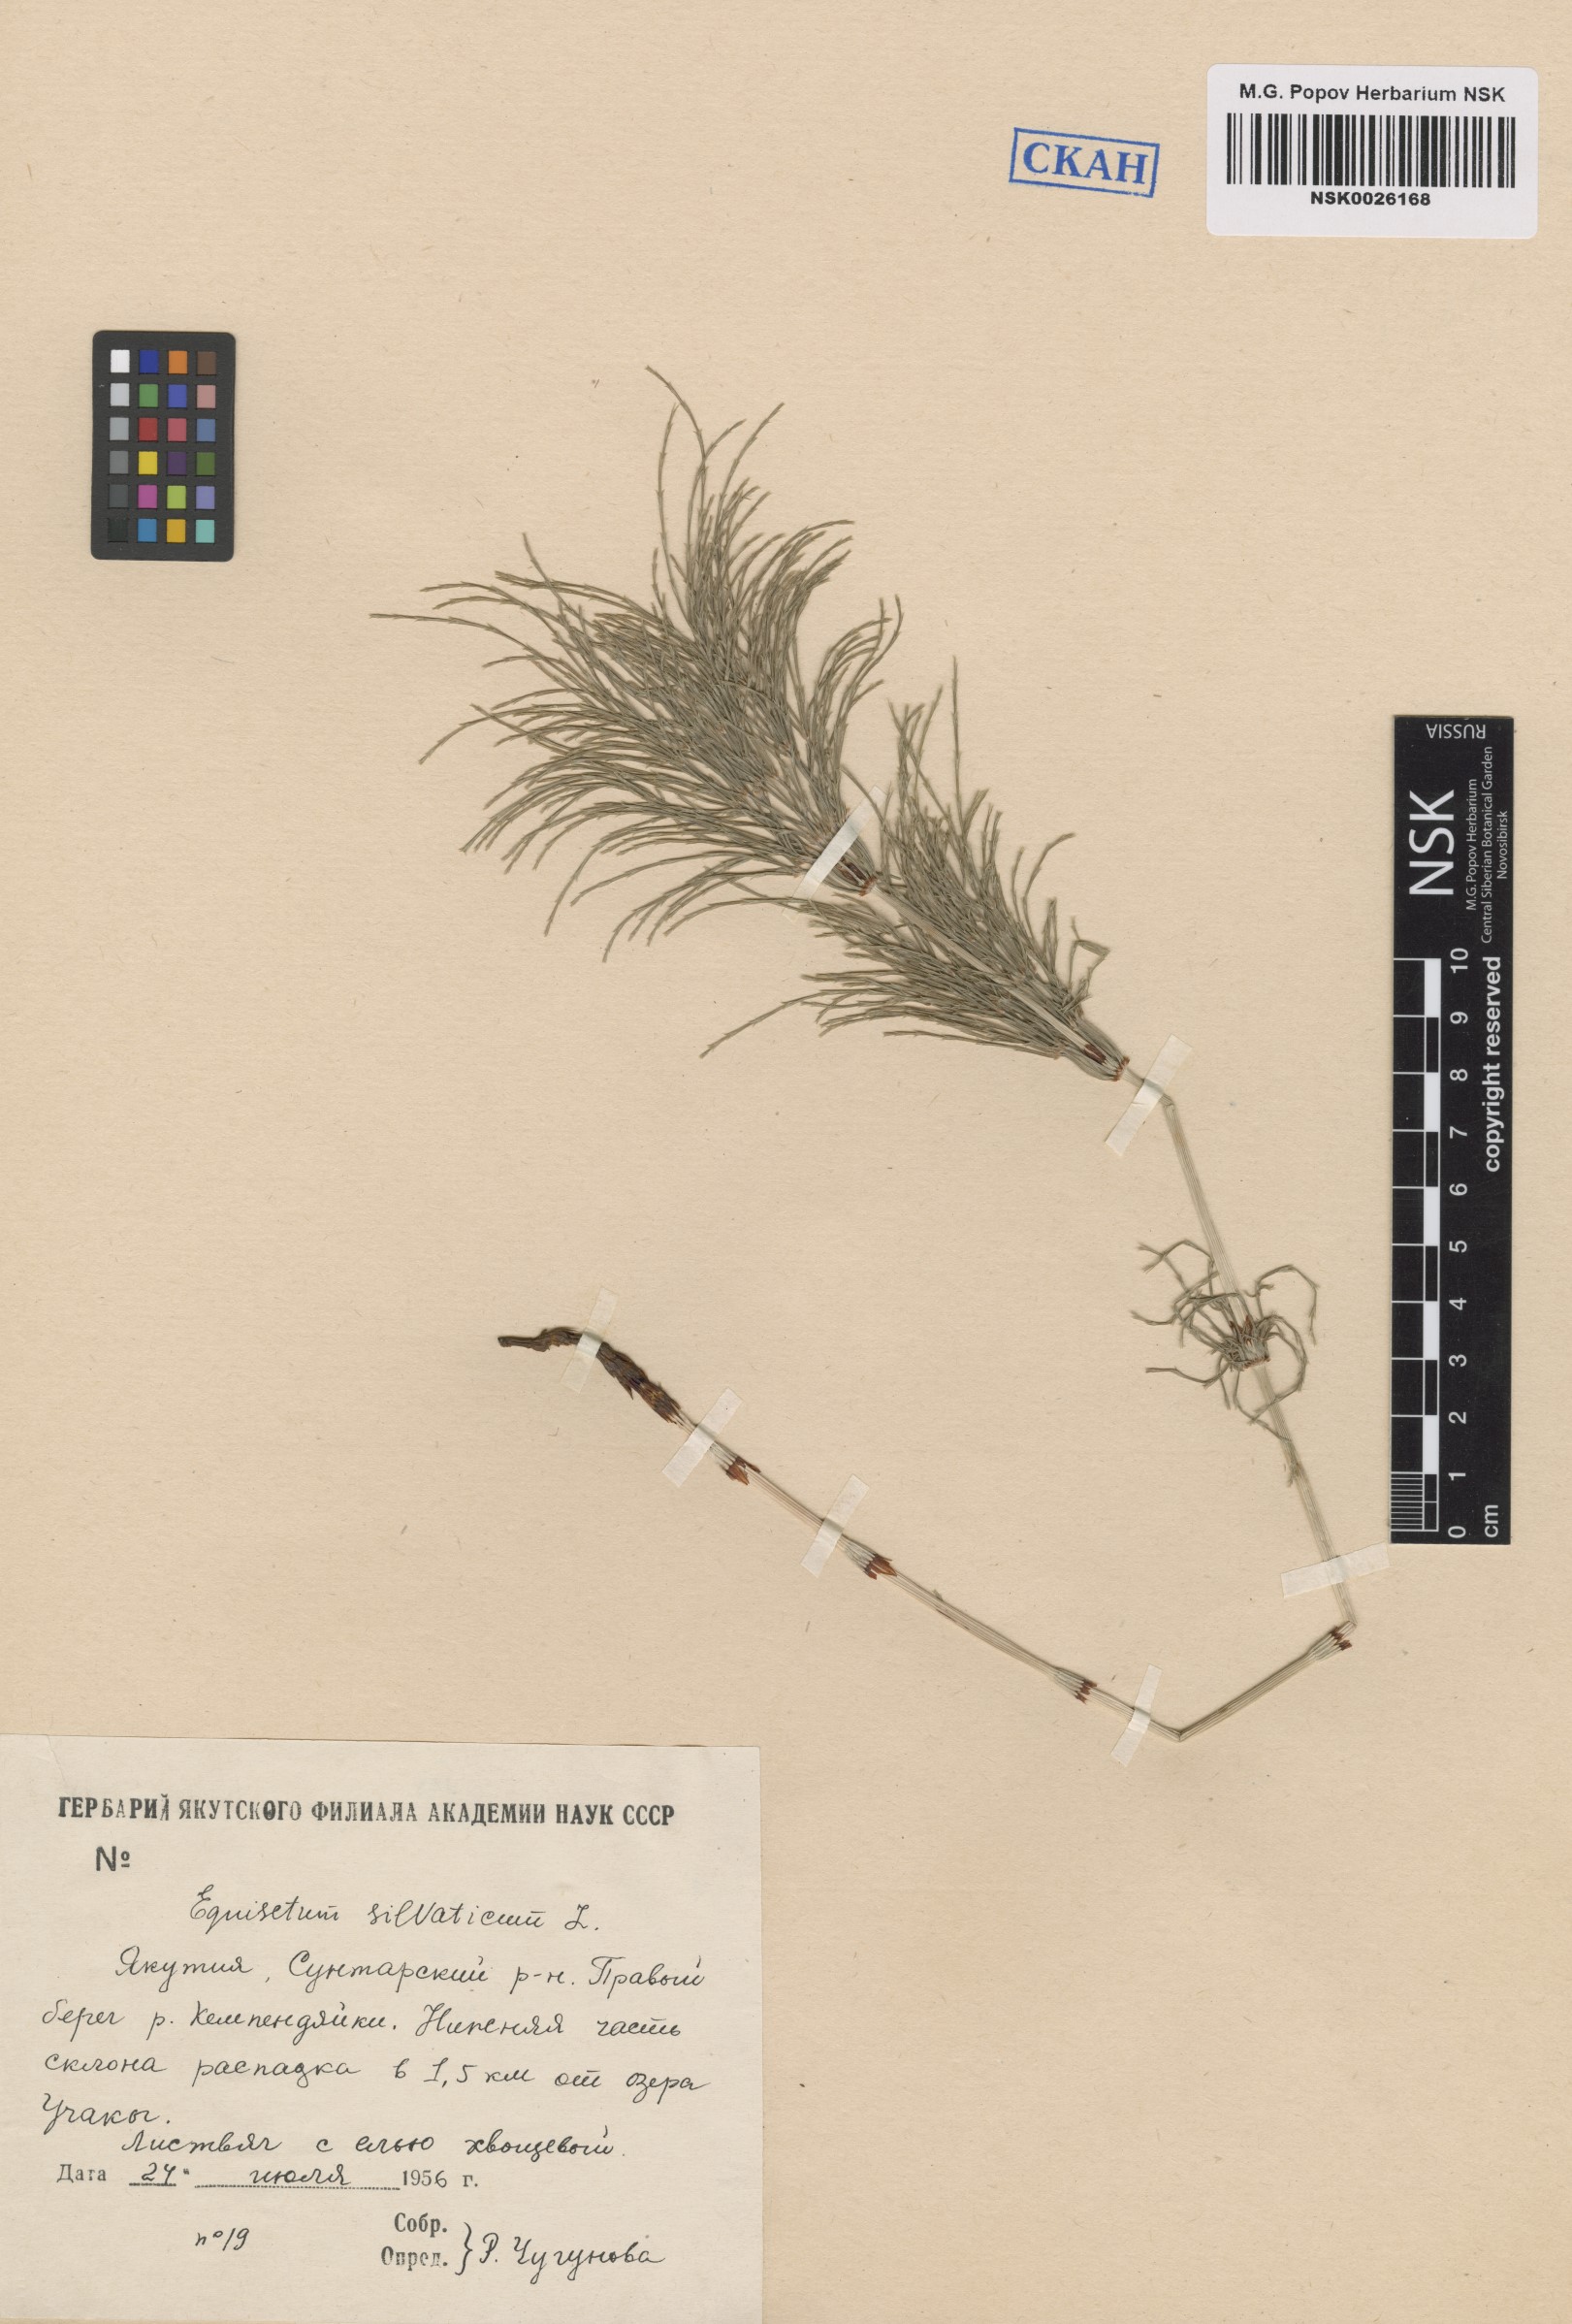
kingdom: Plantae
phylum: Tracheophyta
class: Polypodiopsida
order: Equisetales
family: Equisetaceae
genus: Equisetum
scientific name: Equisetum sylvaticum
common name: Wood horsetail
